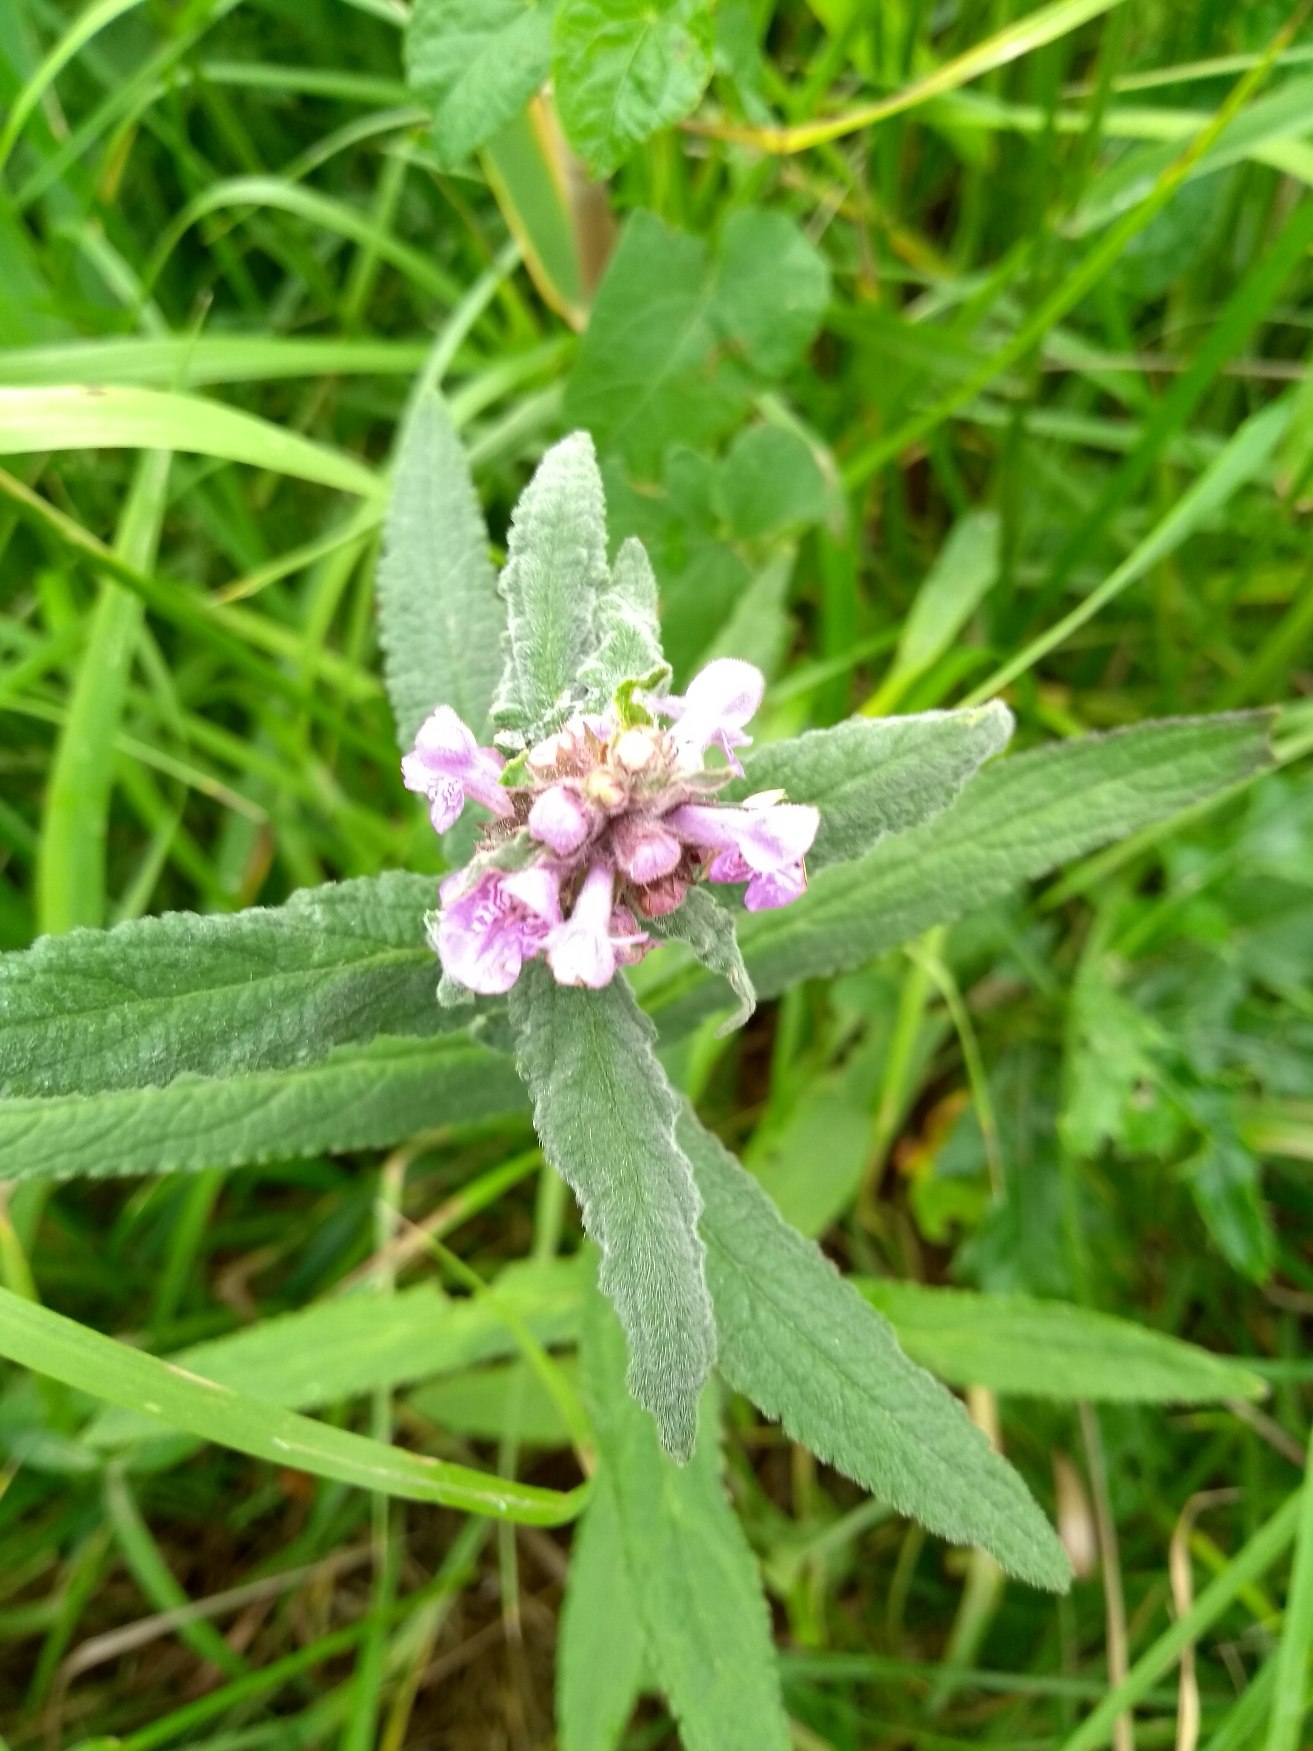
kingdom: Plantae
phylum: Tracheophyta
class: Magnoliopsida
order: Lamiales
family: Lamiaceae
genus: Stachys
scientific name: Stachys palustris
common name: Kær-galtetand
